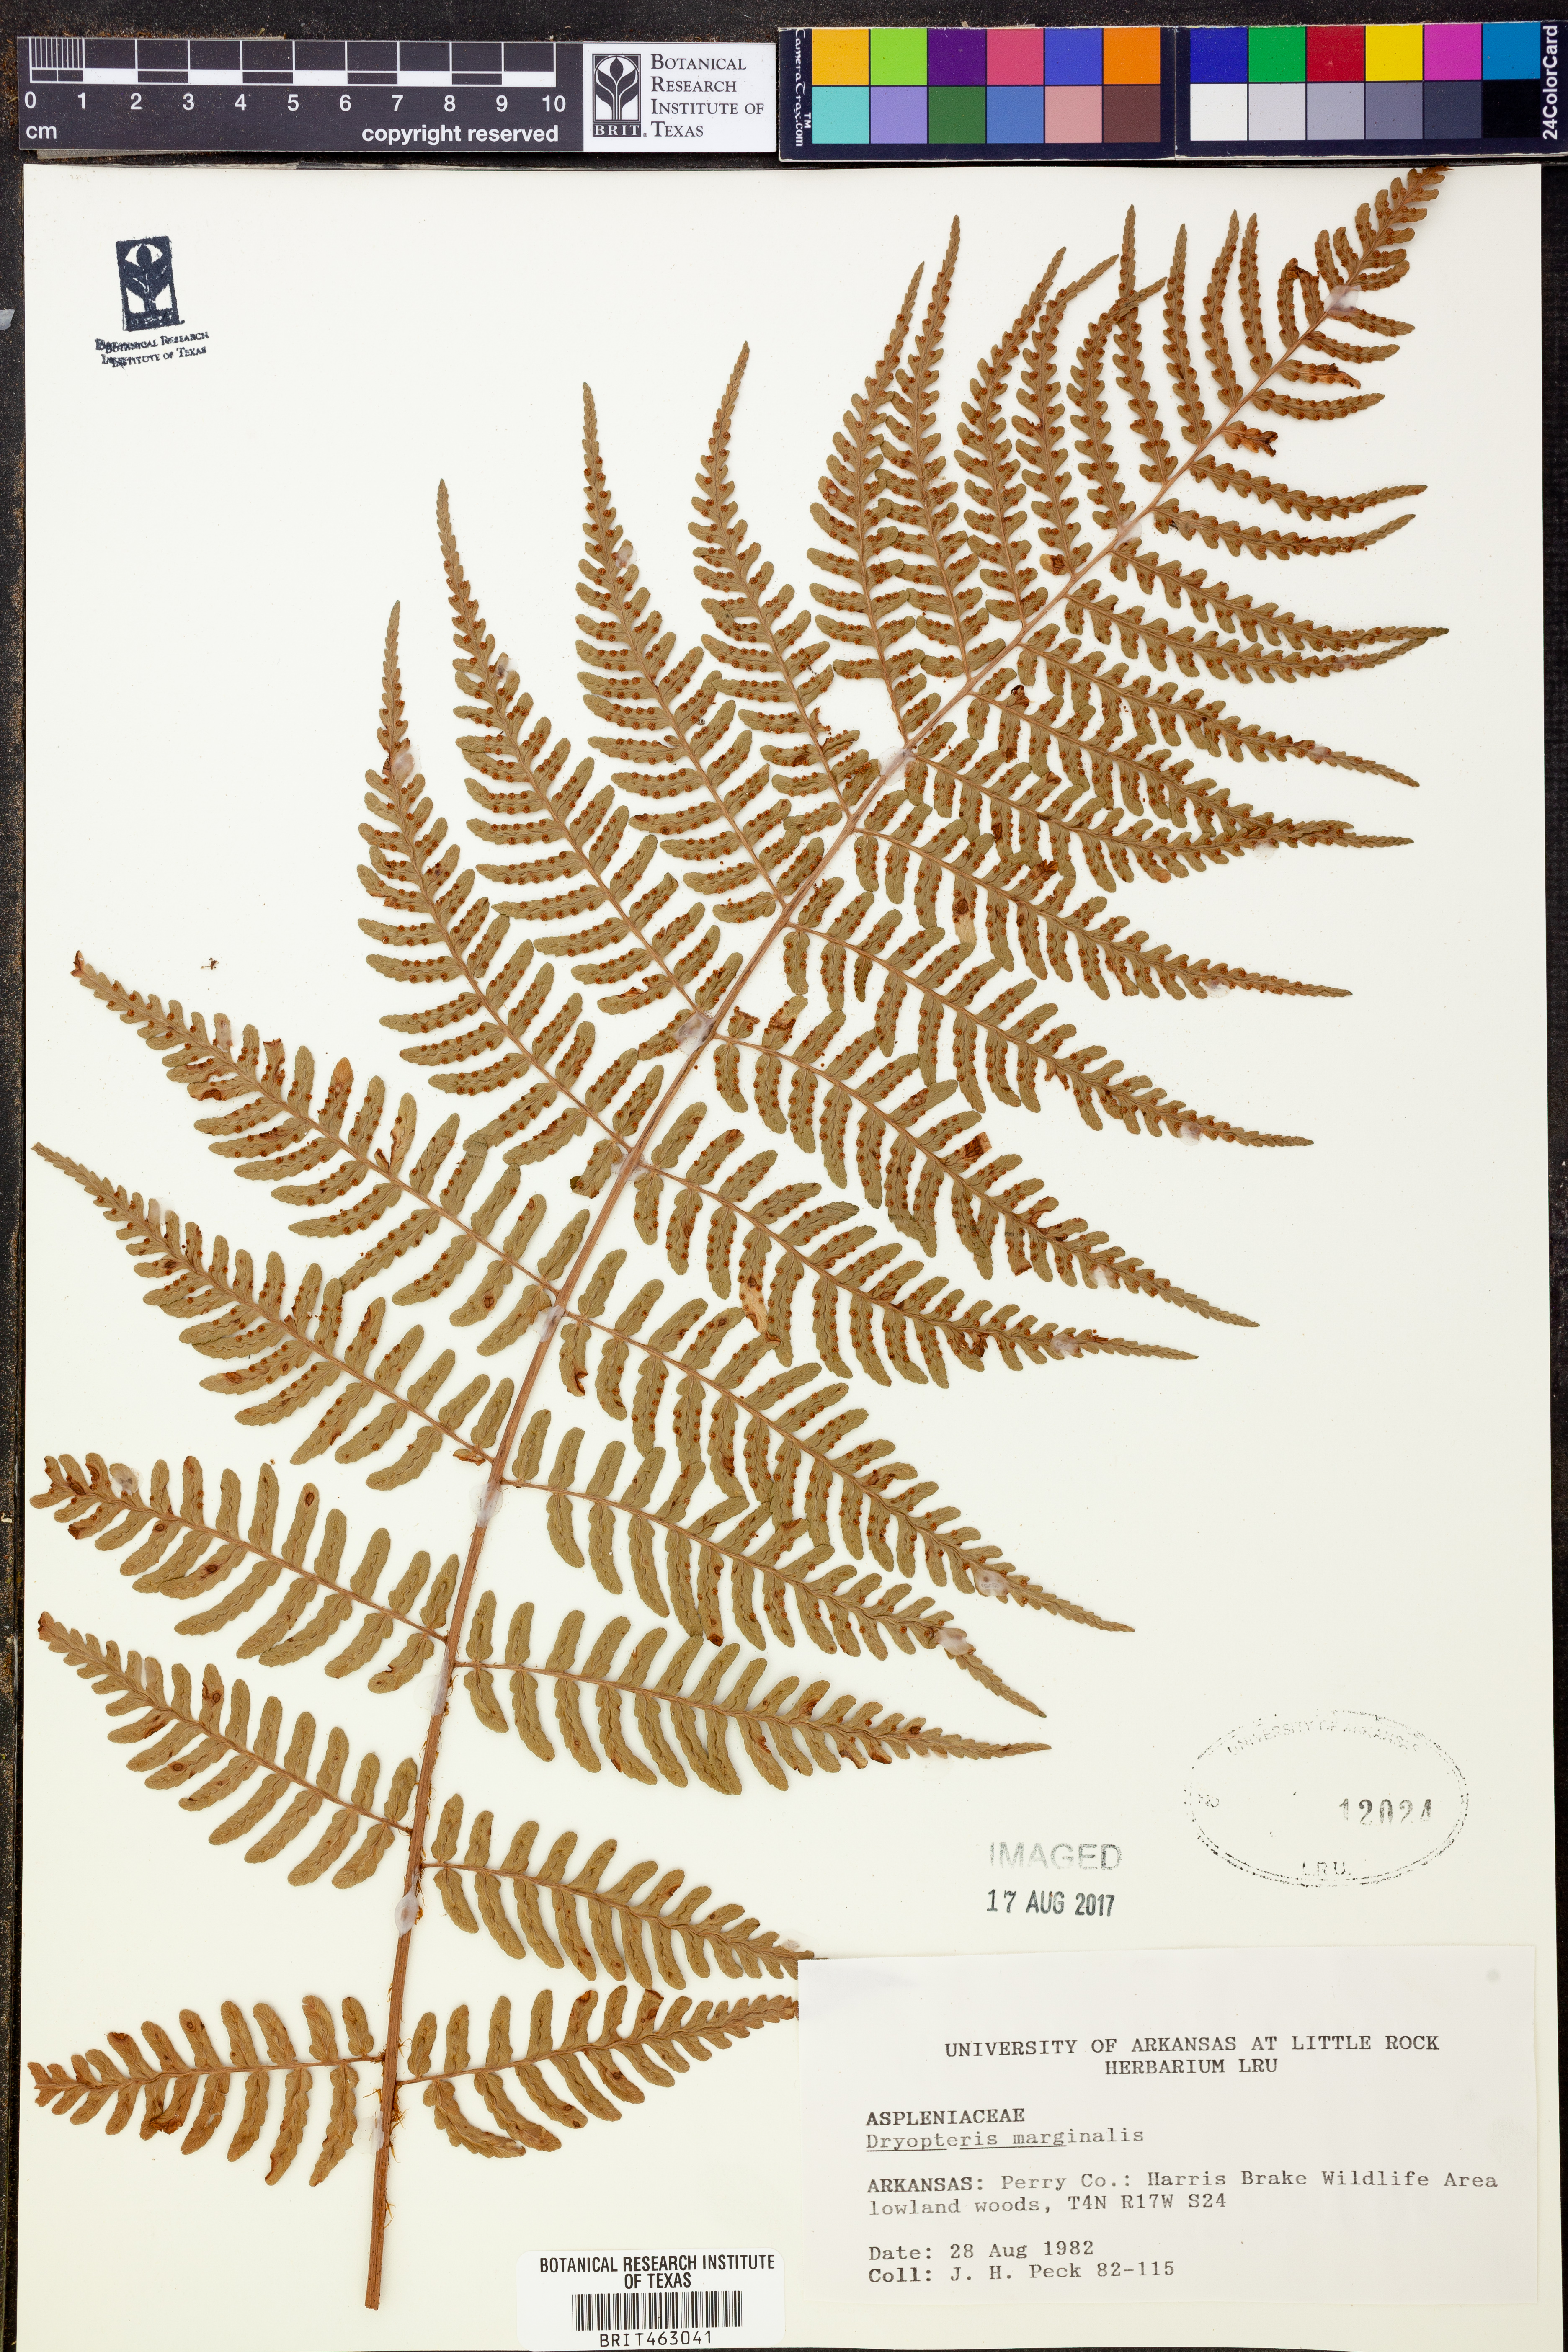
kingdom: Plantae
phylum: Tracheophyta
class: Polypodiopsida
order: Polypodiales
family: Dryopteridaceae
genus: Dryopteris
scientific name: Dryopteris marginalis
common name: Marginal wood fern
